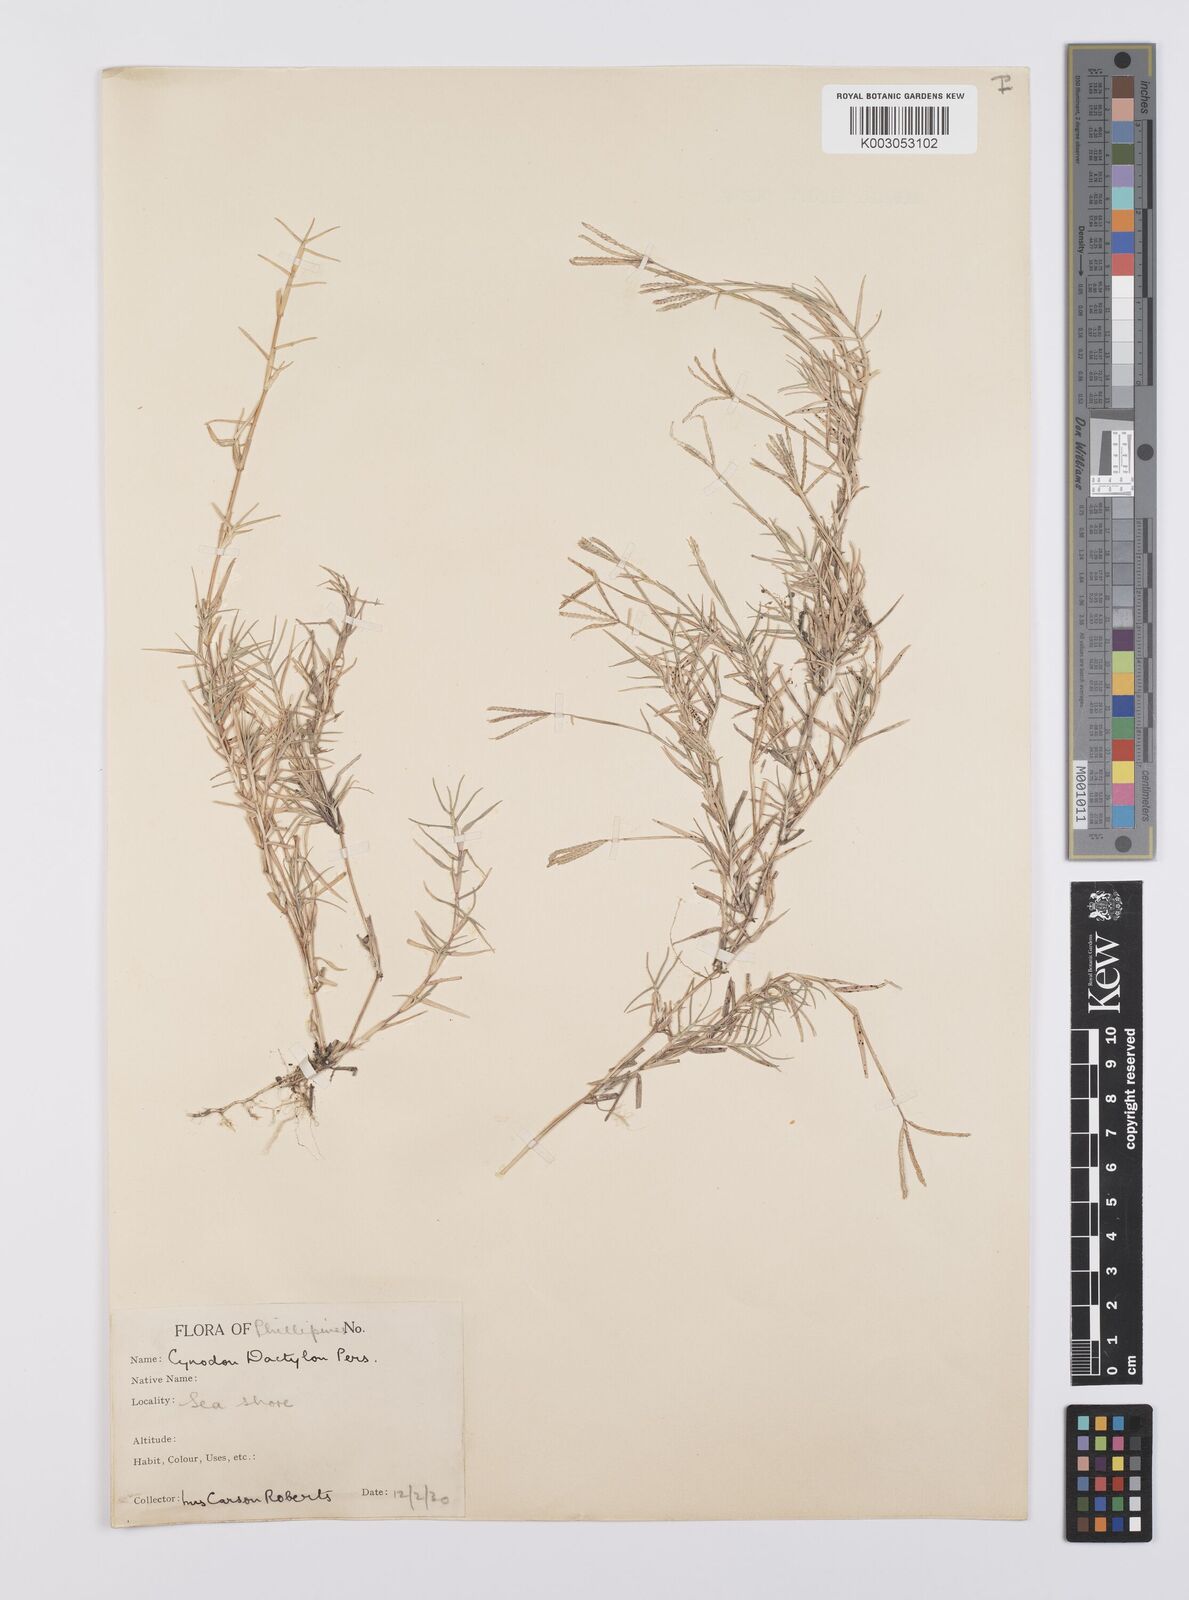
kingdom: Plantae
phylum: Tracheophyta
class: Liliopsida
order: Poales
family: Poaceae
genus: Cynodon
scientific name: Cynodon dactylon
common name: Bermuda grass
